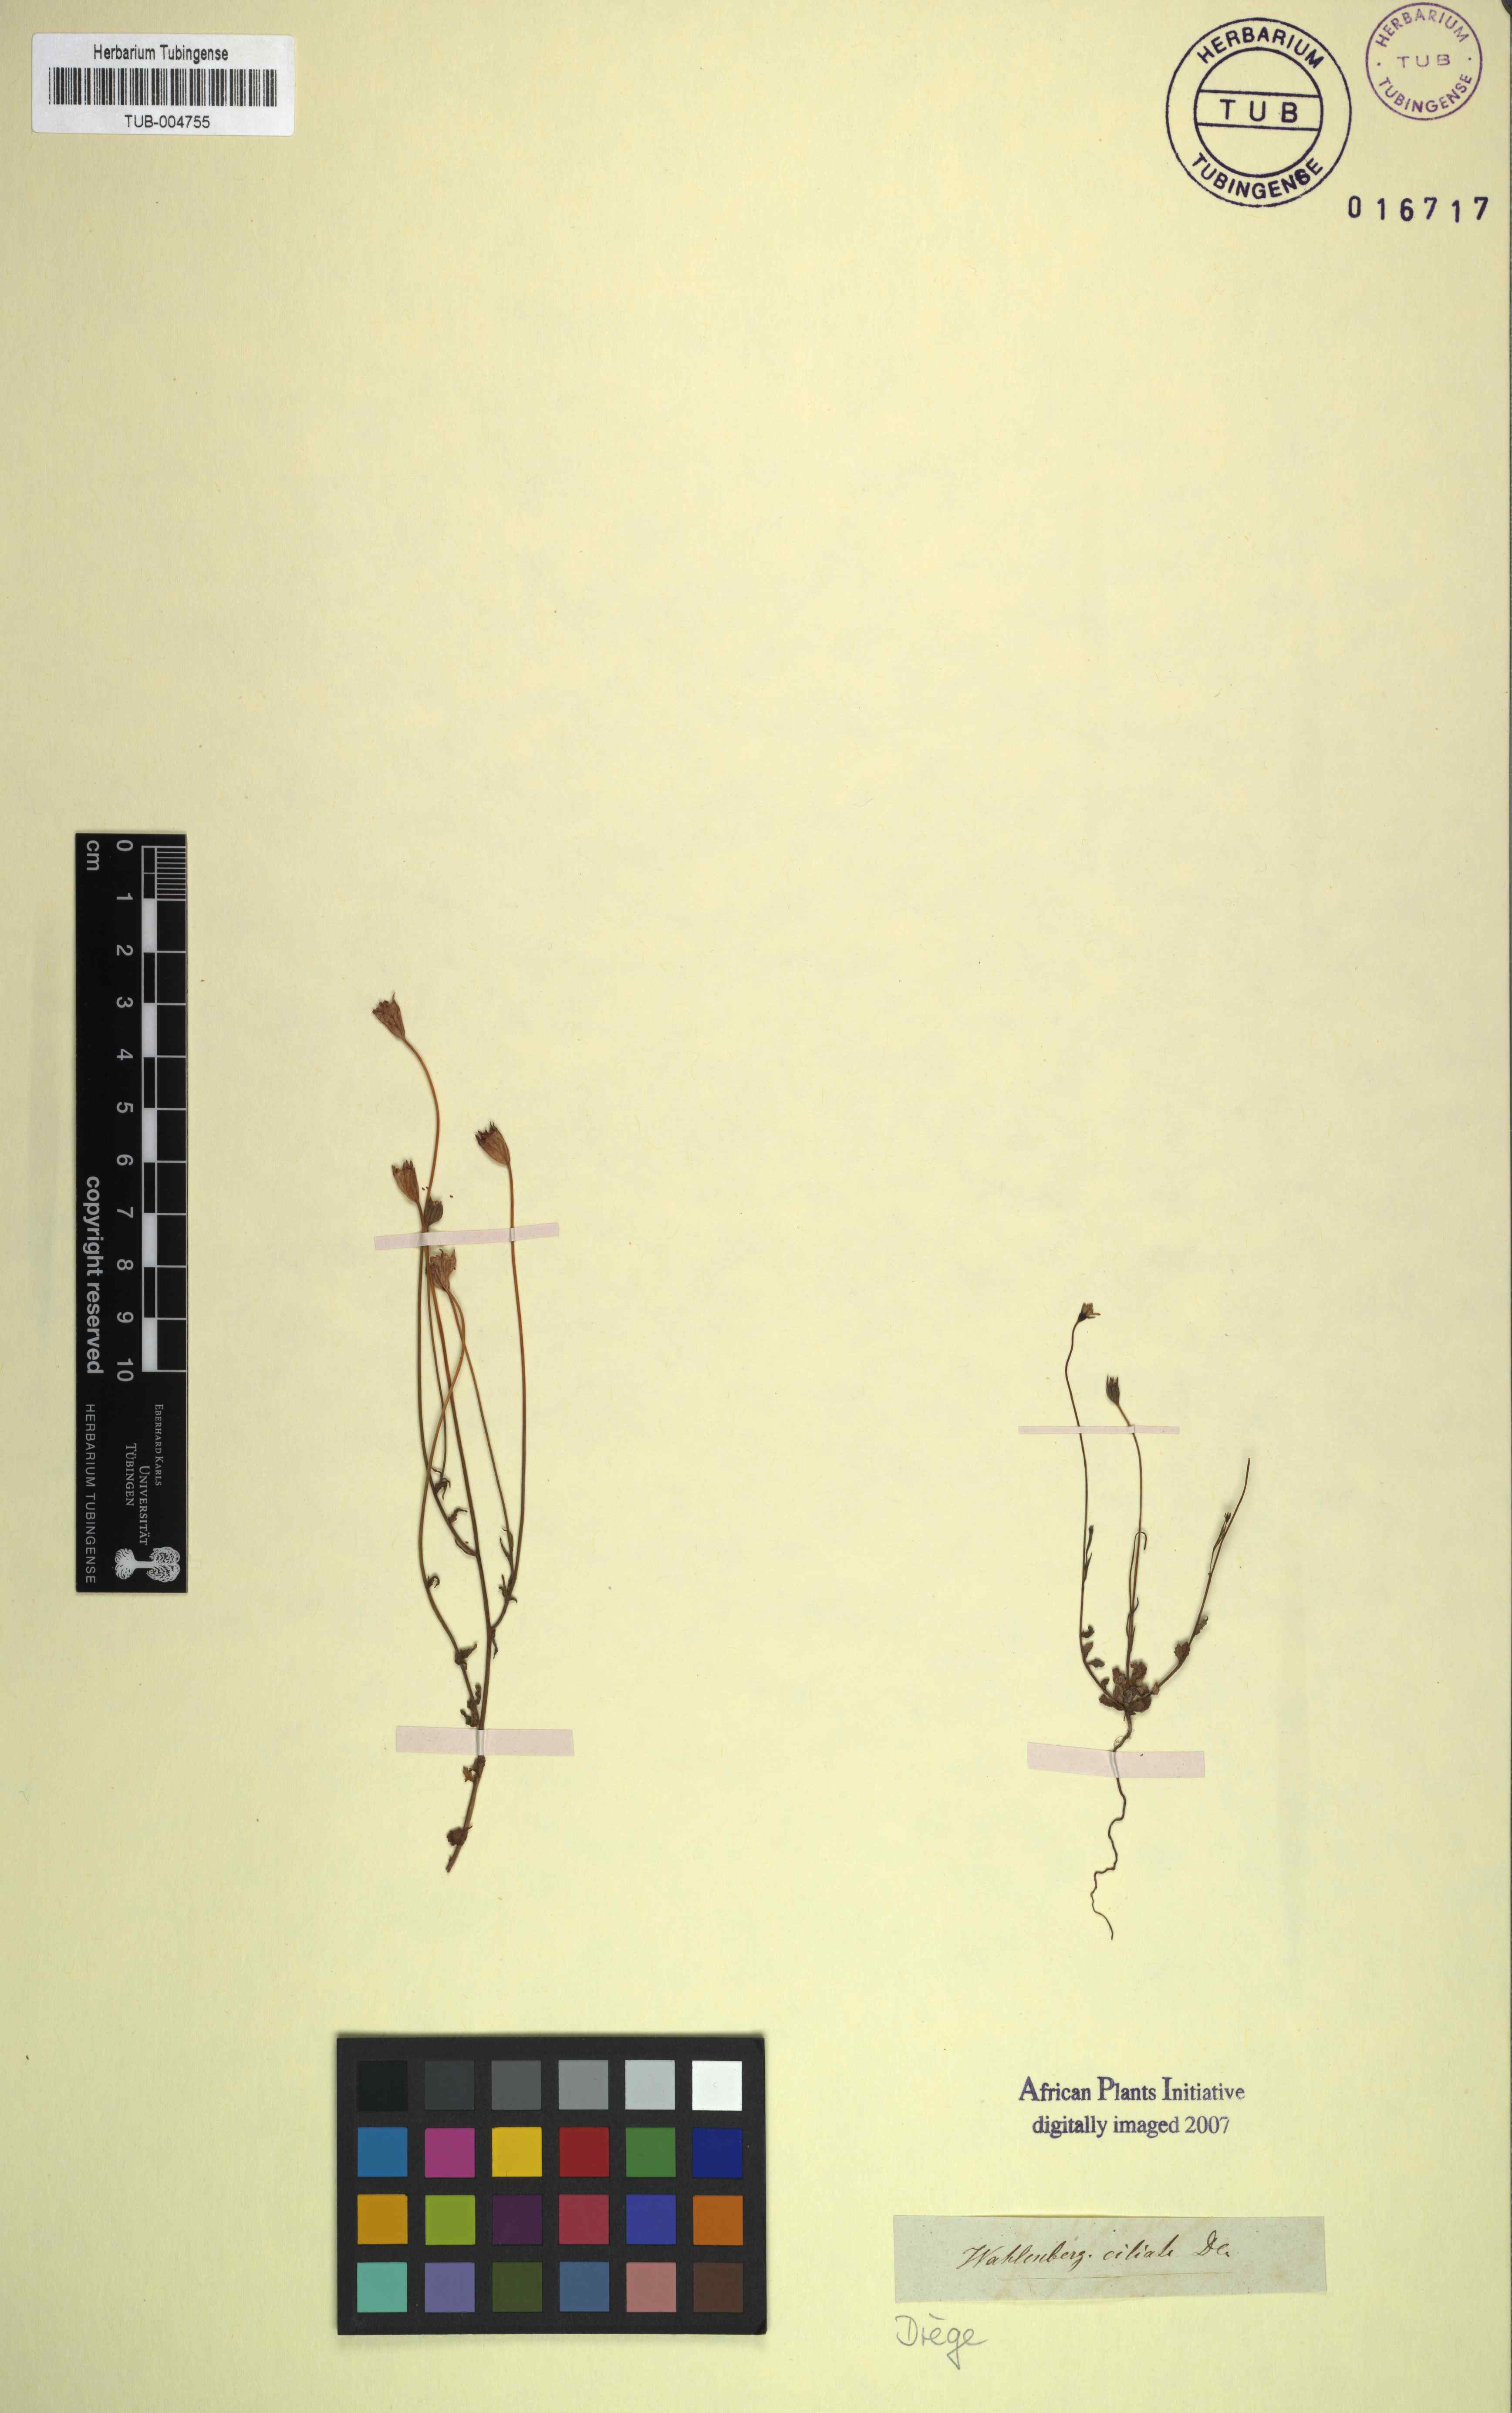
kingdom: Plantae
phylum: Tracheophyta
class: Magnoliopsida
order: Asterales
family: Campanulaceae
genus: Wahlenbergia
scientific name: Wahlenbergia cernua
